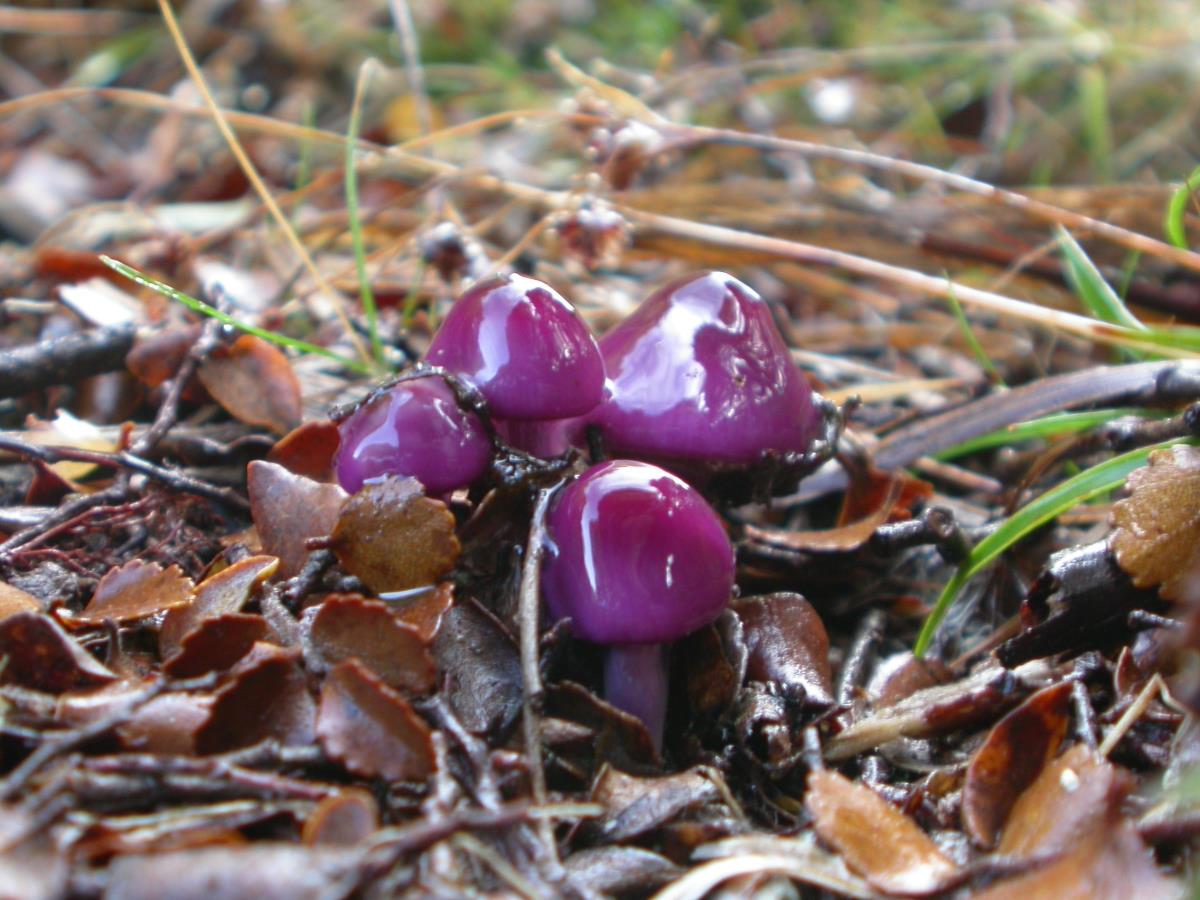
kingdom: Fungi
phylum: Basidiomycota
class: Agaricomycetes
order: Agaricales
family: Cortinariaceae
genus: Cortinarius
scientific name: Cortinarius lubricanescens
